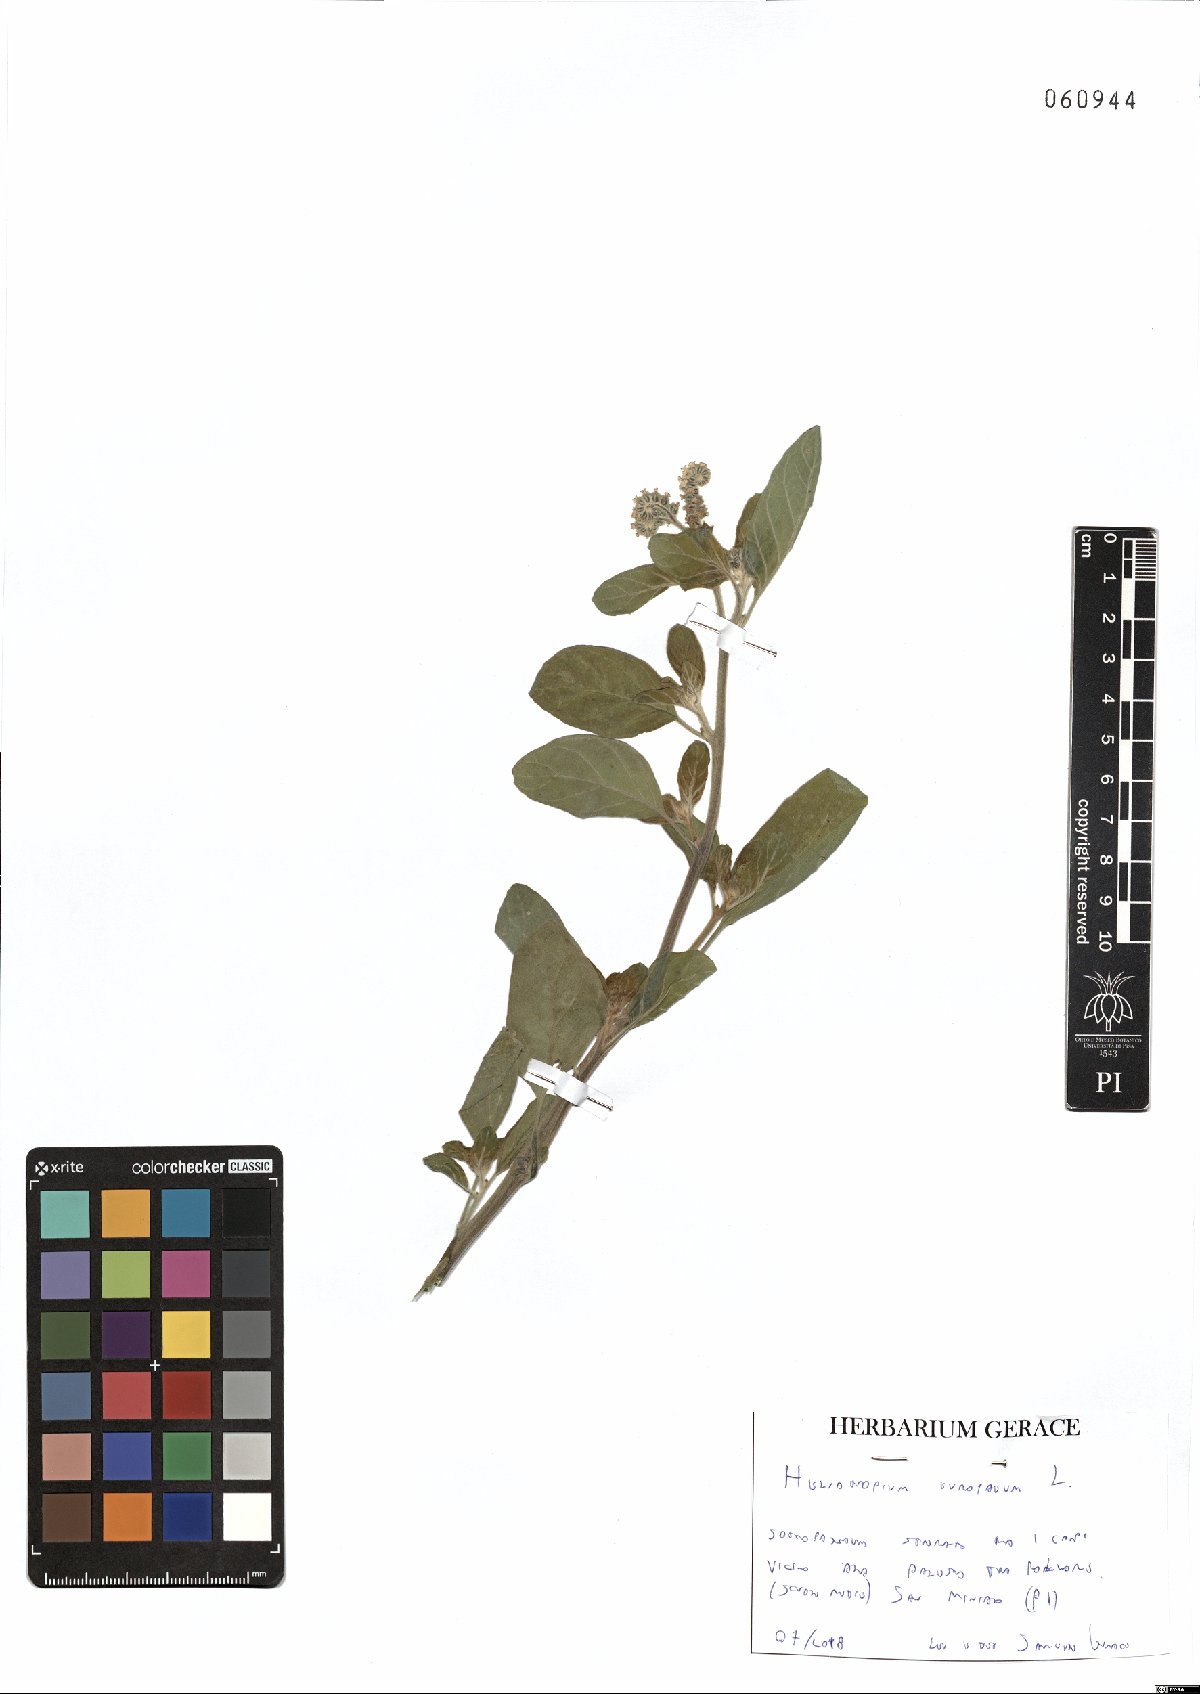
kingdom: Plantae
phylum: Tracheophyta
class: Magnoliopsida
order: Boraginales
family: Heliotropiaceae
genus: Heliotropium
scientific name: Heliotropium europaeum
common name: European heliotrope
